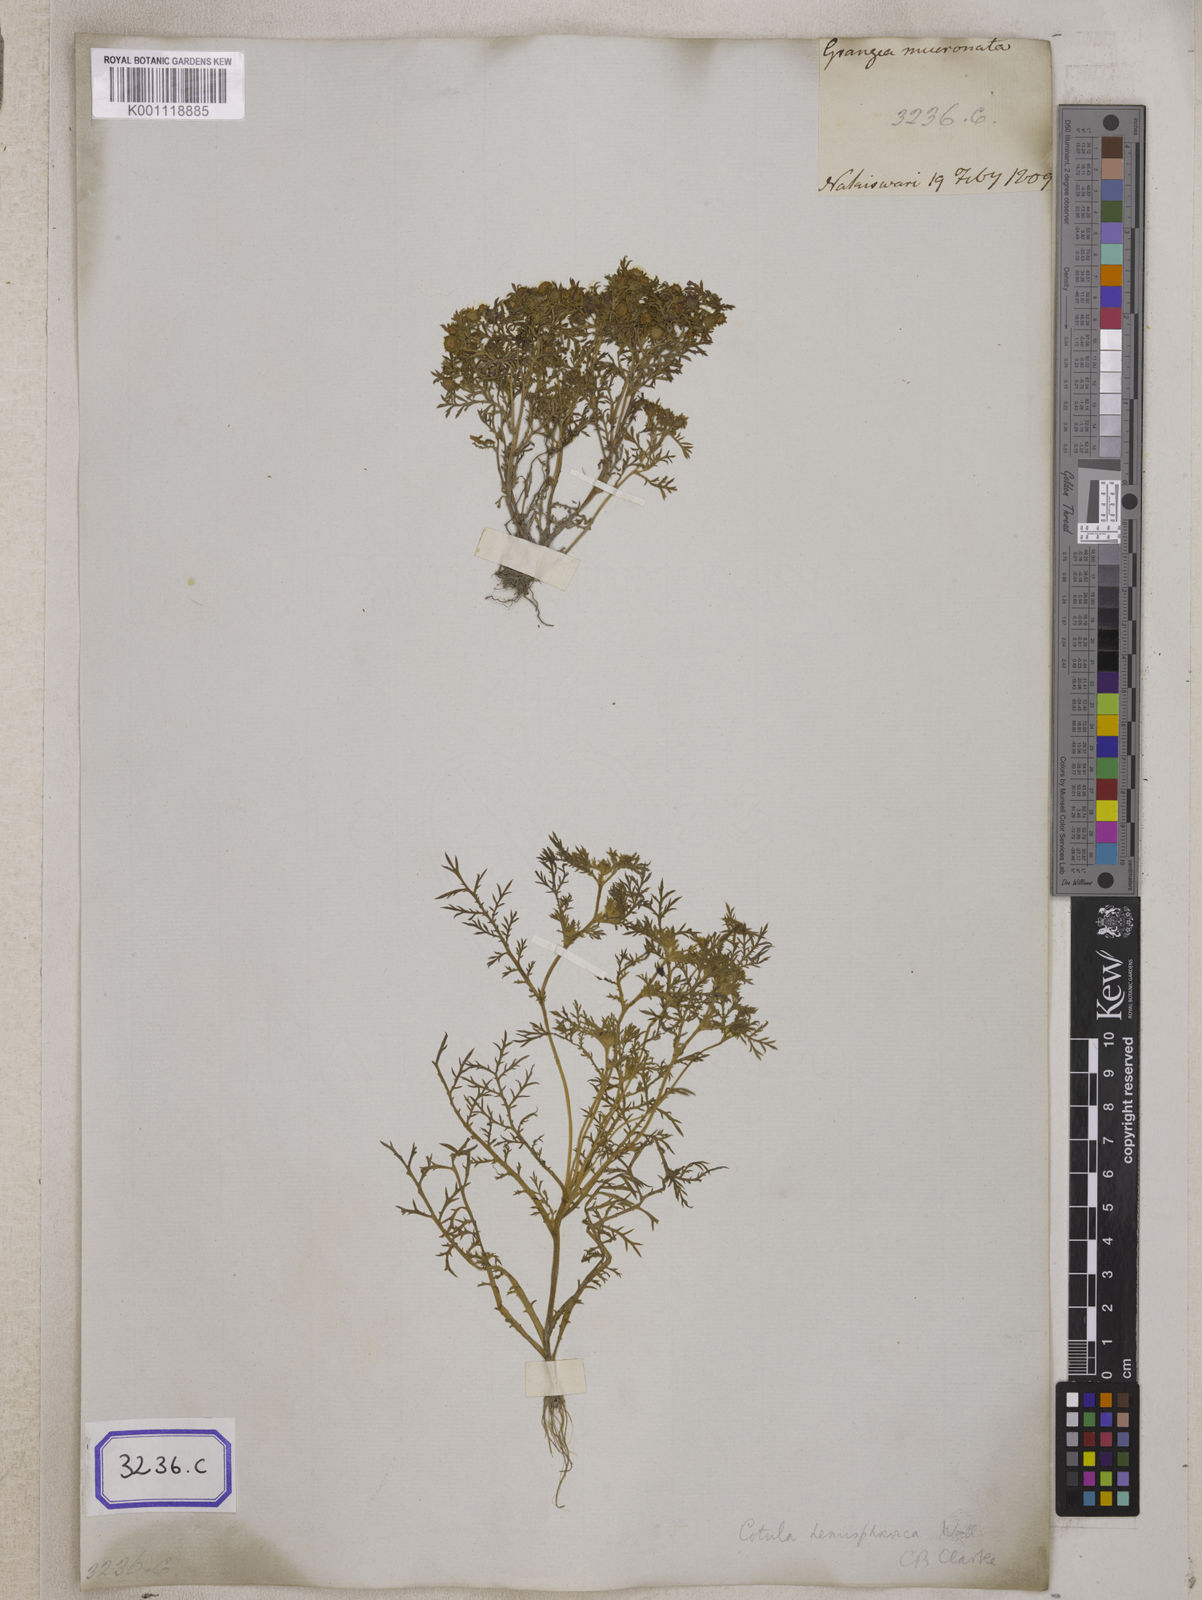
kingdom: Plantae
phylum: Tracheophyta
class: Magnoliopsida
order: Asterales
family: Asteraceae
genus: Cotula
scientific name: Cotula
